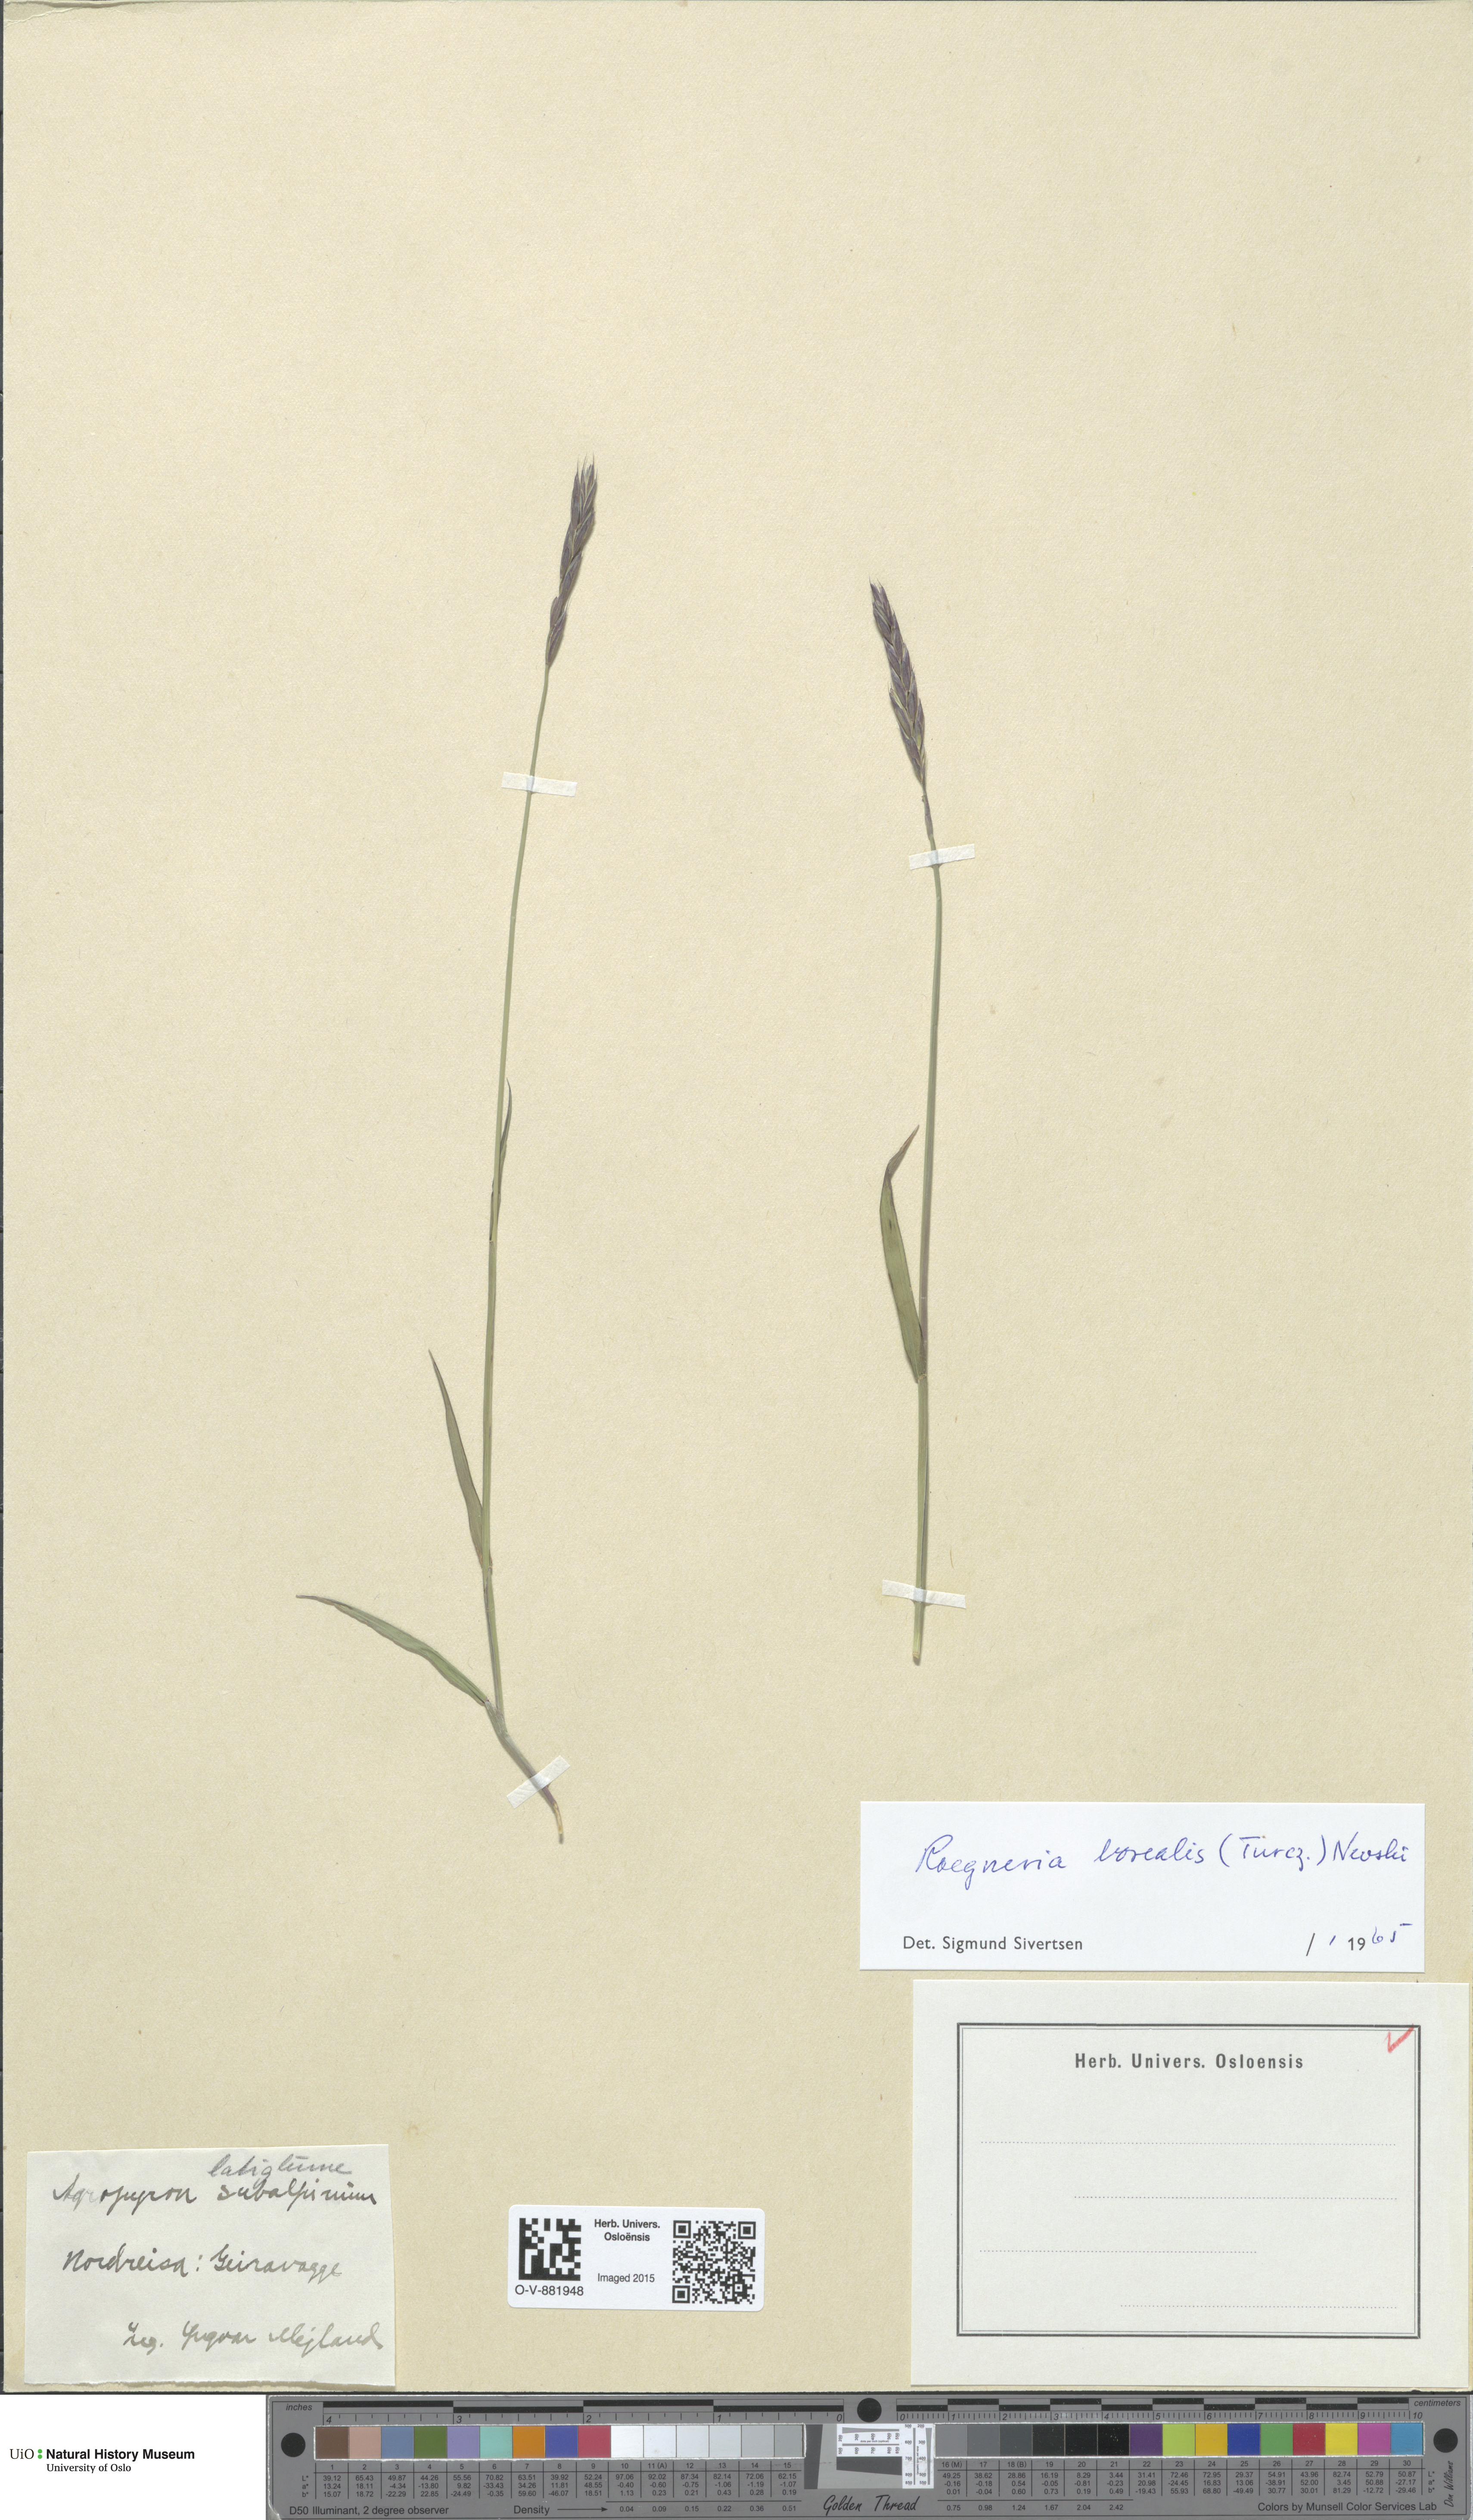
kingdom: Plantae
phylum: Tracheophyta
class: Liliopsida
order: Poales
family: Poaceae
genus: Elymus
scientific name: Elymus macrourus
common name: Northern wheatgrass
